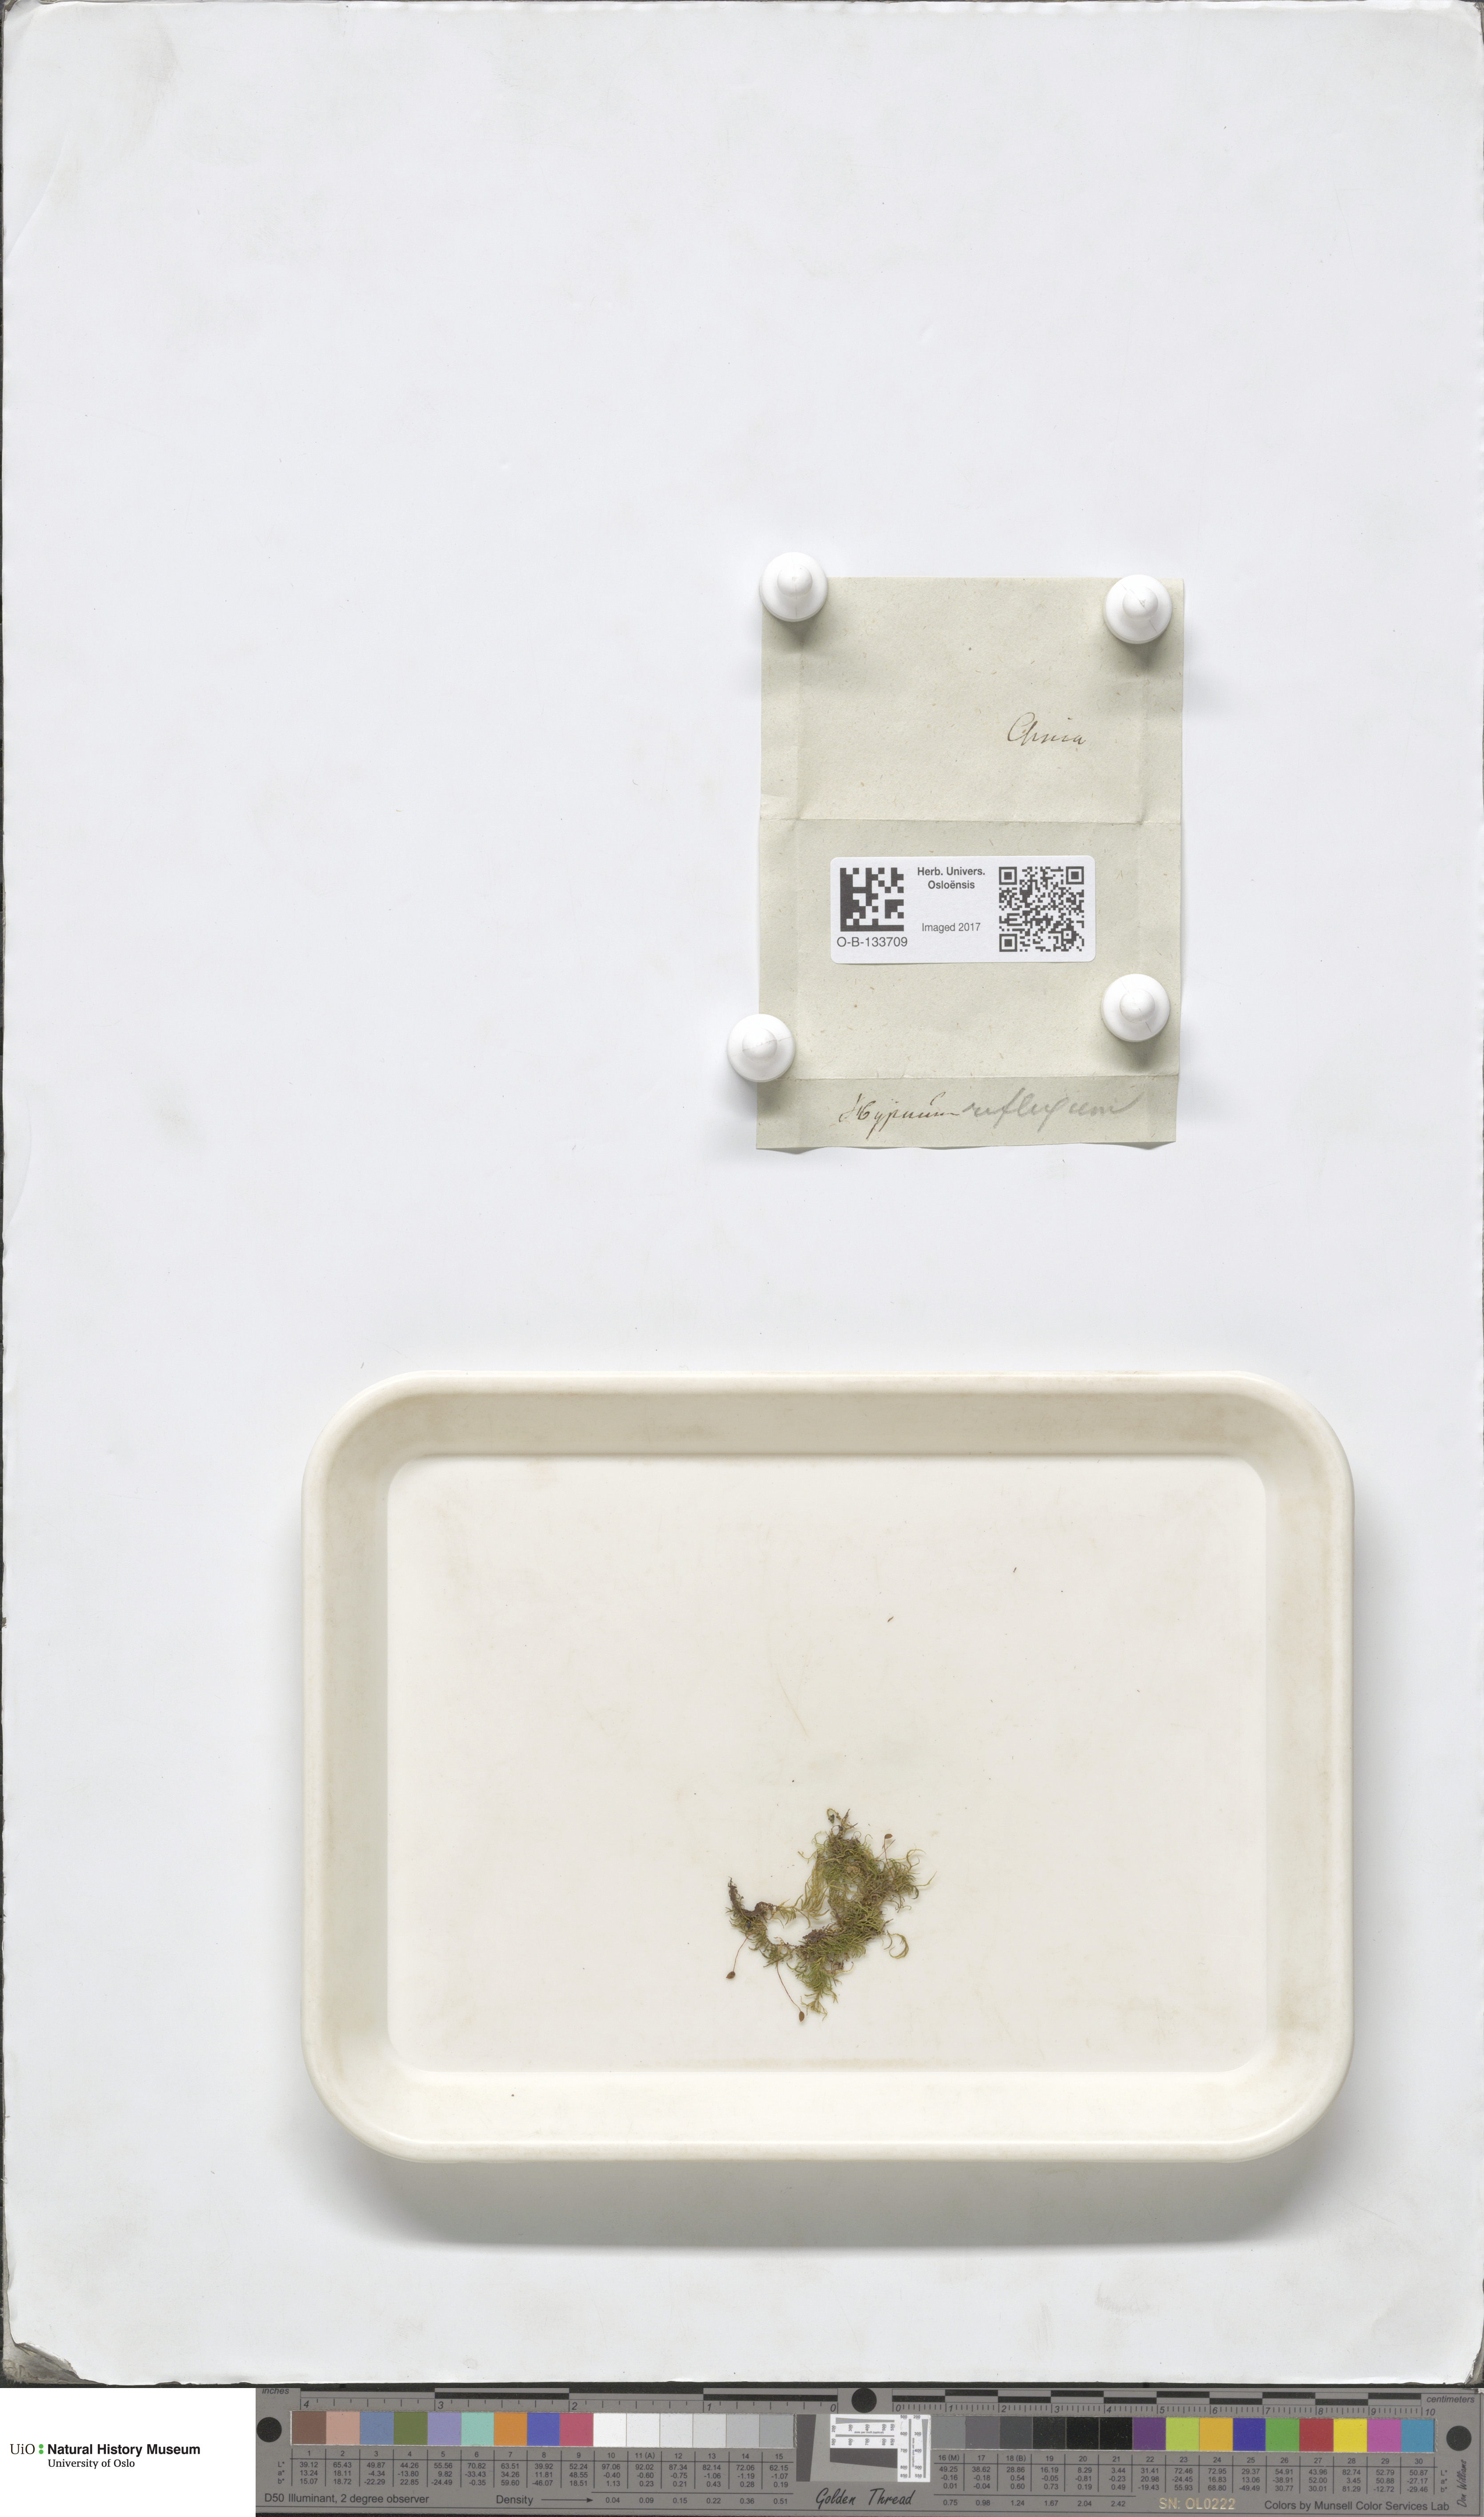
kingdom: Plantae
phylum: Bryophyta
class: Bryopsida
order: Hypnales
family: Brachytheciaceae
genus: Sciuro-hypnum
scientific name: Sciuro-hypnum reflexum
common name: Reflexed feather-moss
